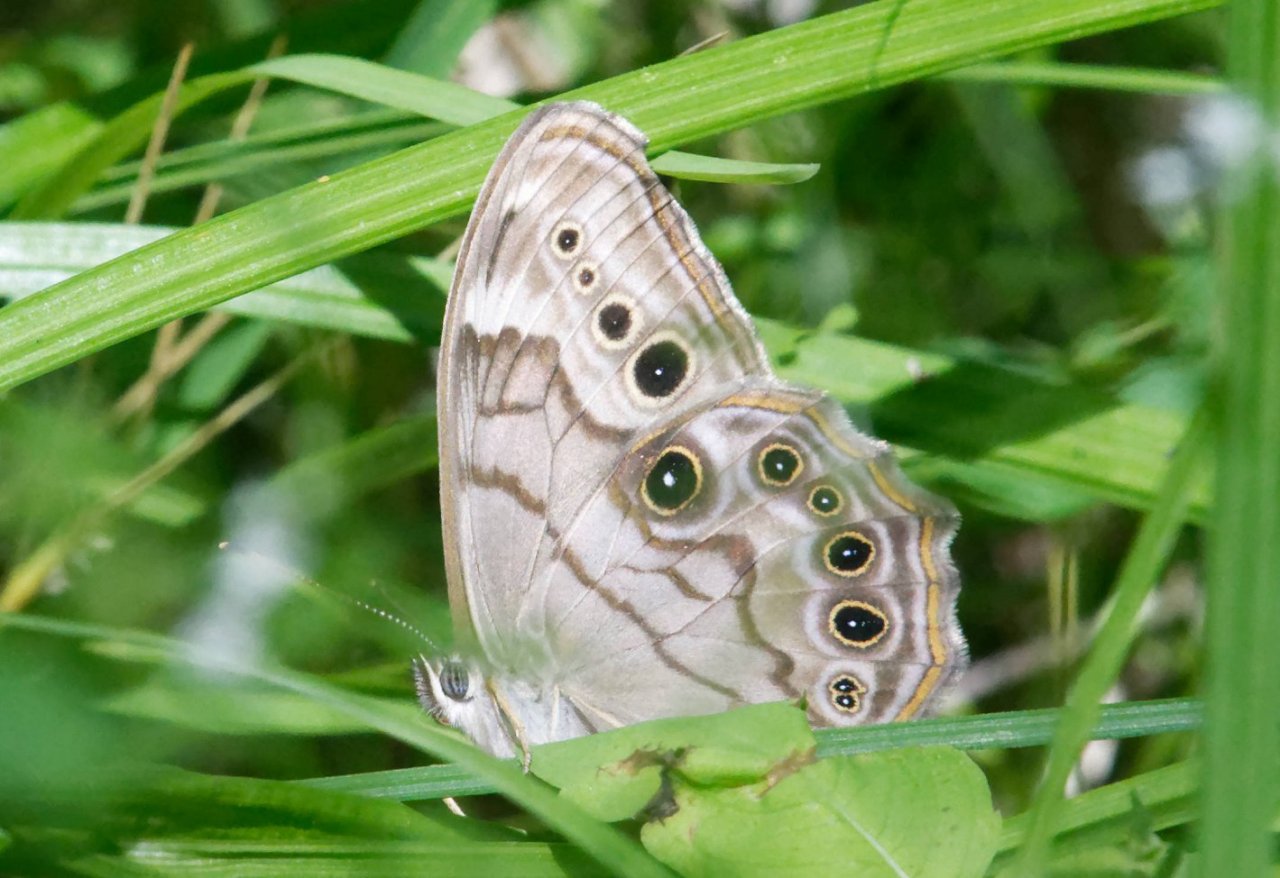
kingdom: Animalia
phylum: Arthropoda
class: Insecta
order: Lepidoptera
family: Nymphalidae
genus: Lethe
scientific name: Lethe anthedon
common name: Northern Pearly-Eye
